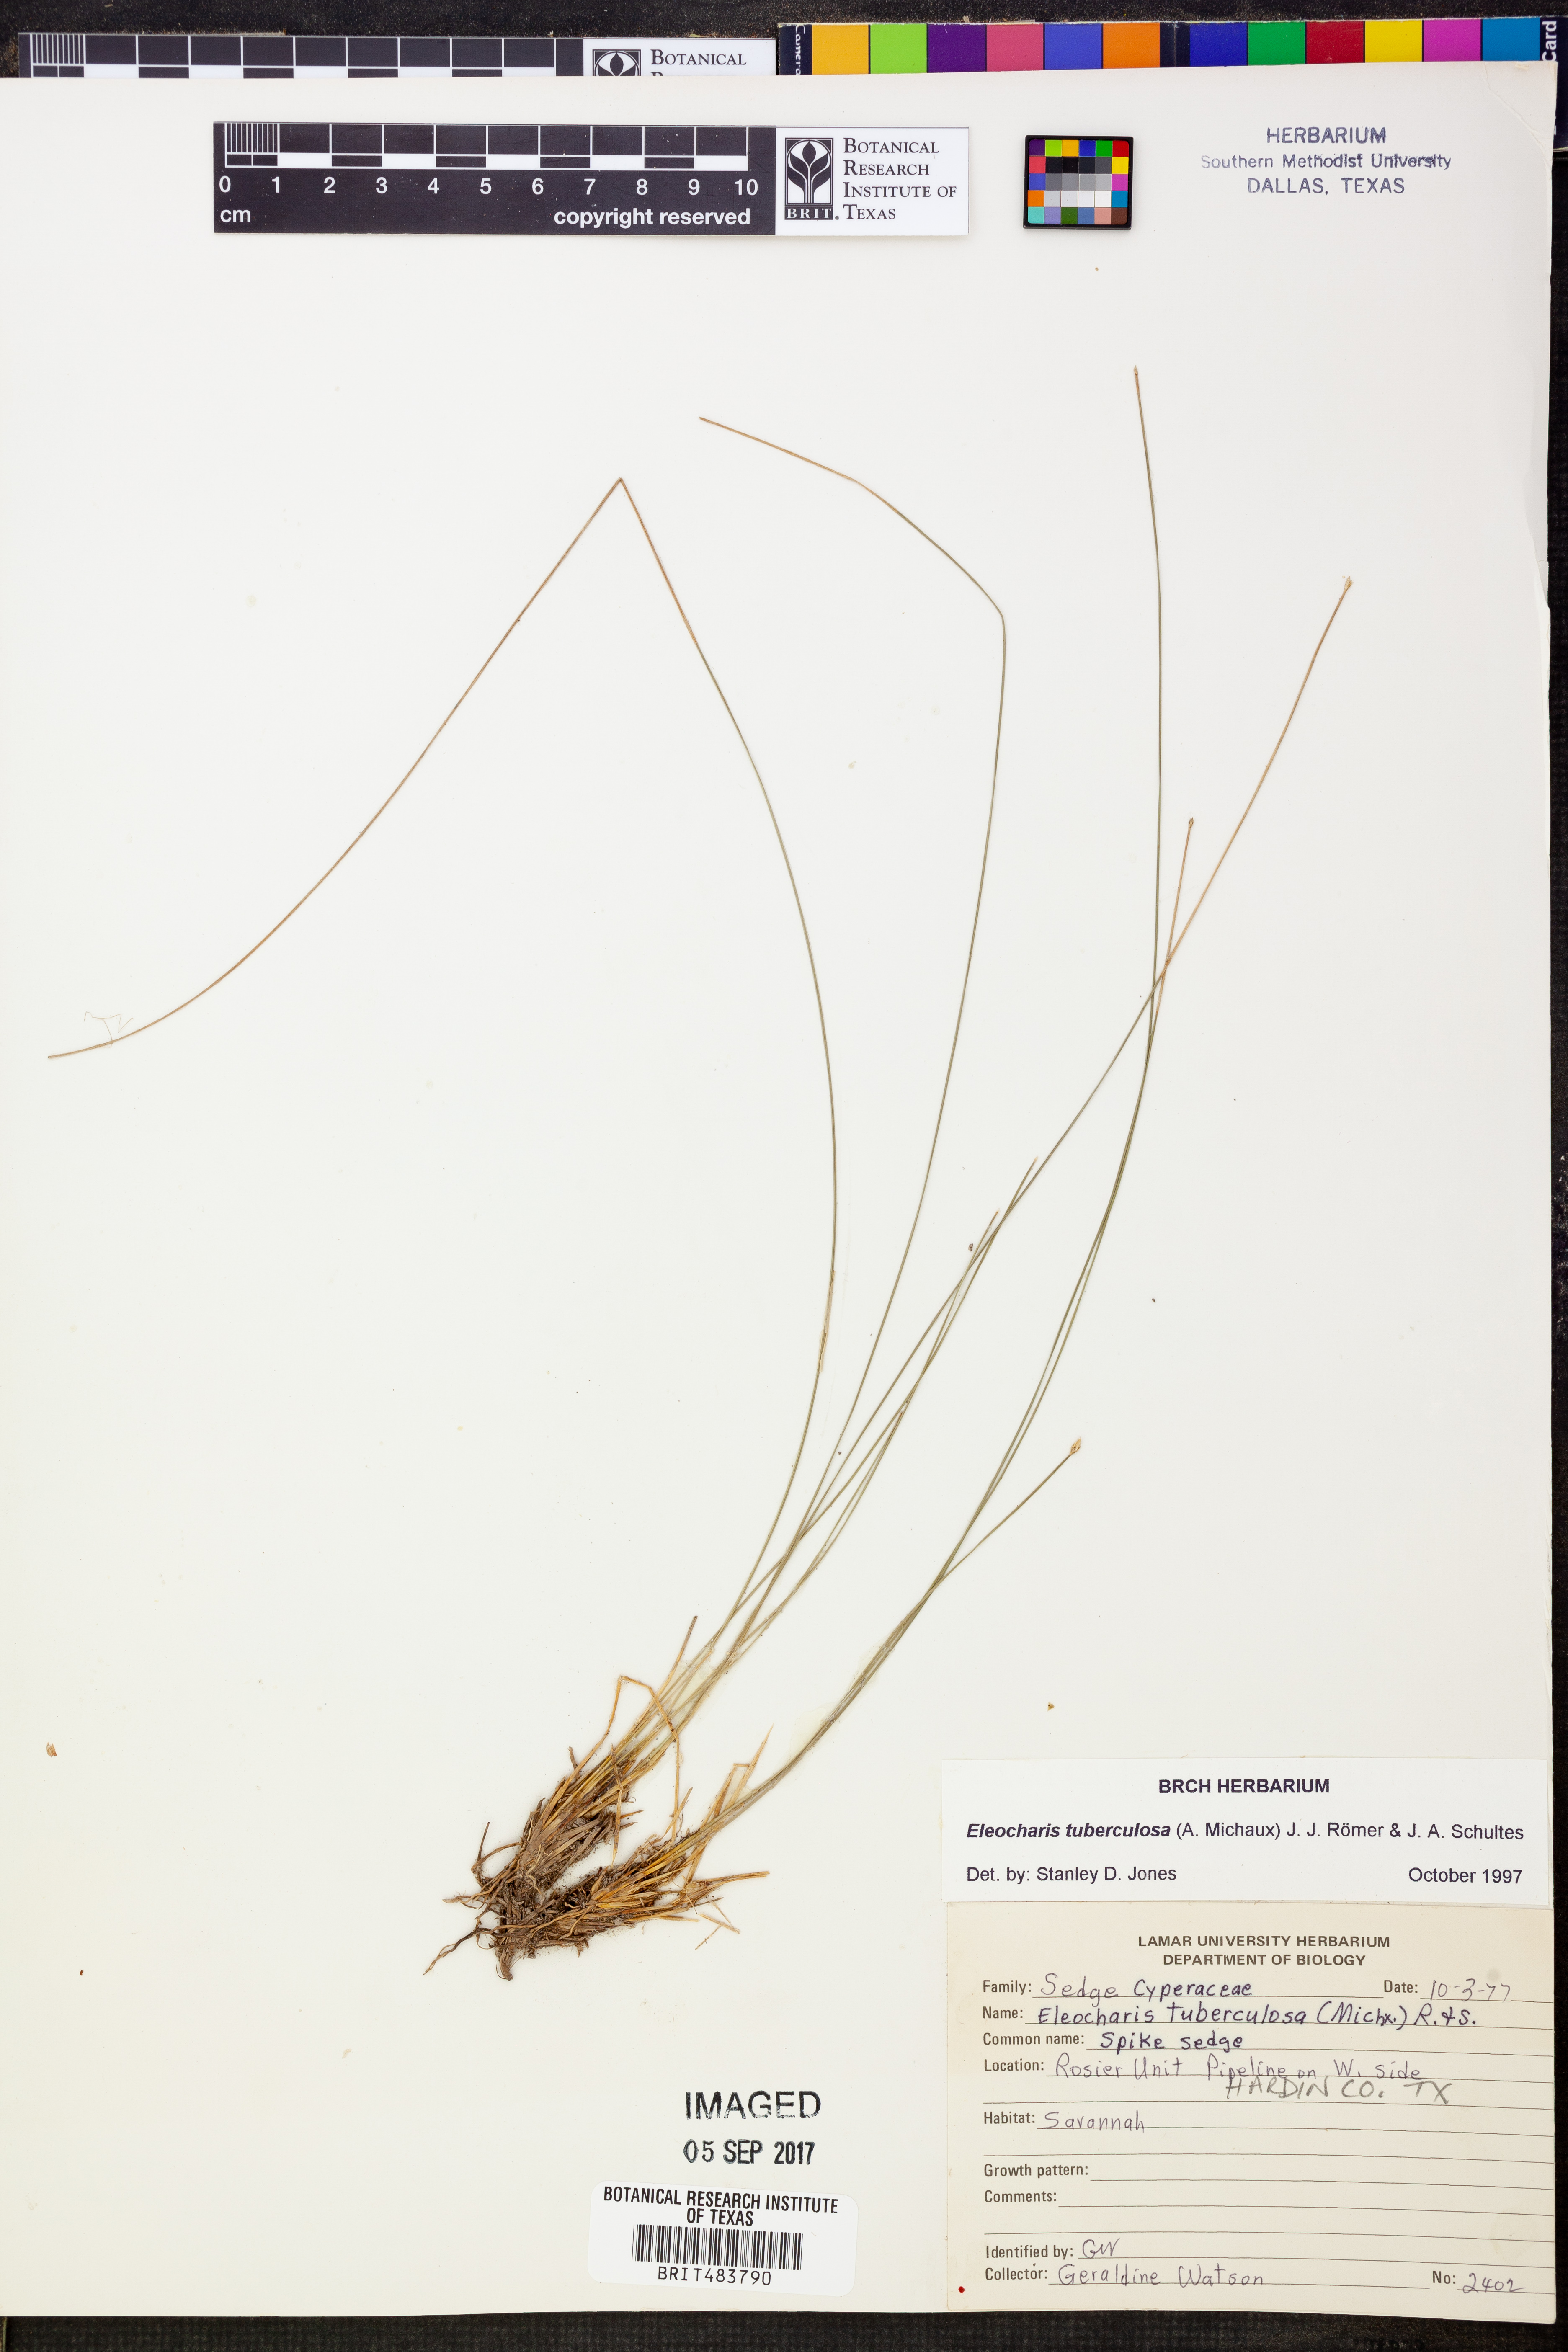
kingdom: Plantae
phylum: Tracheophyta
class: Liliopsida
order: Poales
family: Cyperaceae
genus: Eleocharis
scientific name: Eleocharis tuberculosa
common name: Cone-cup spikerush
